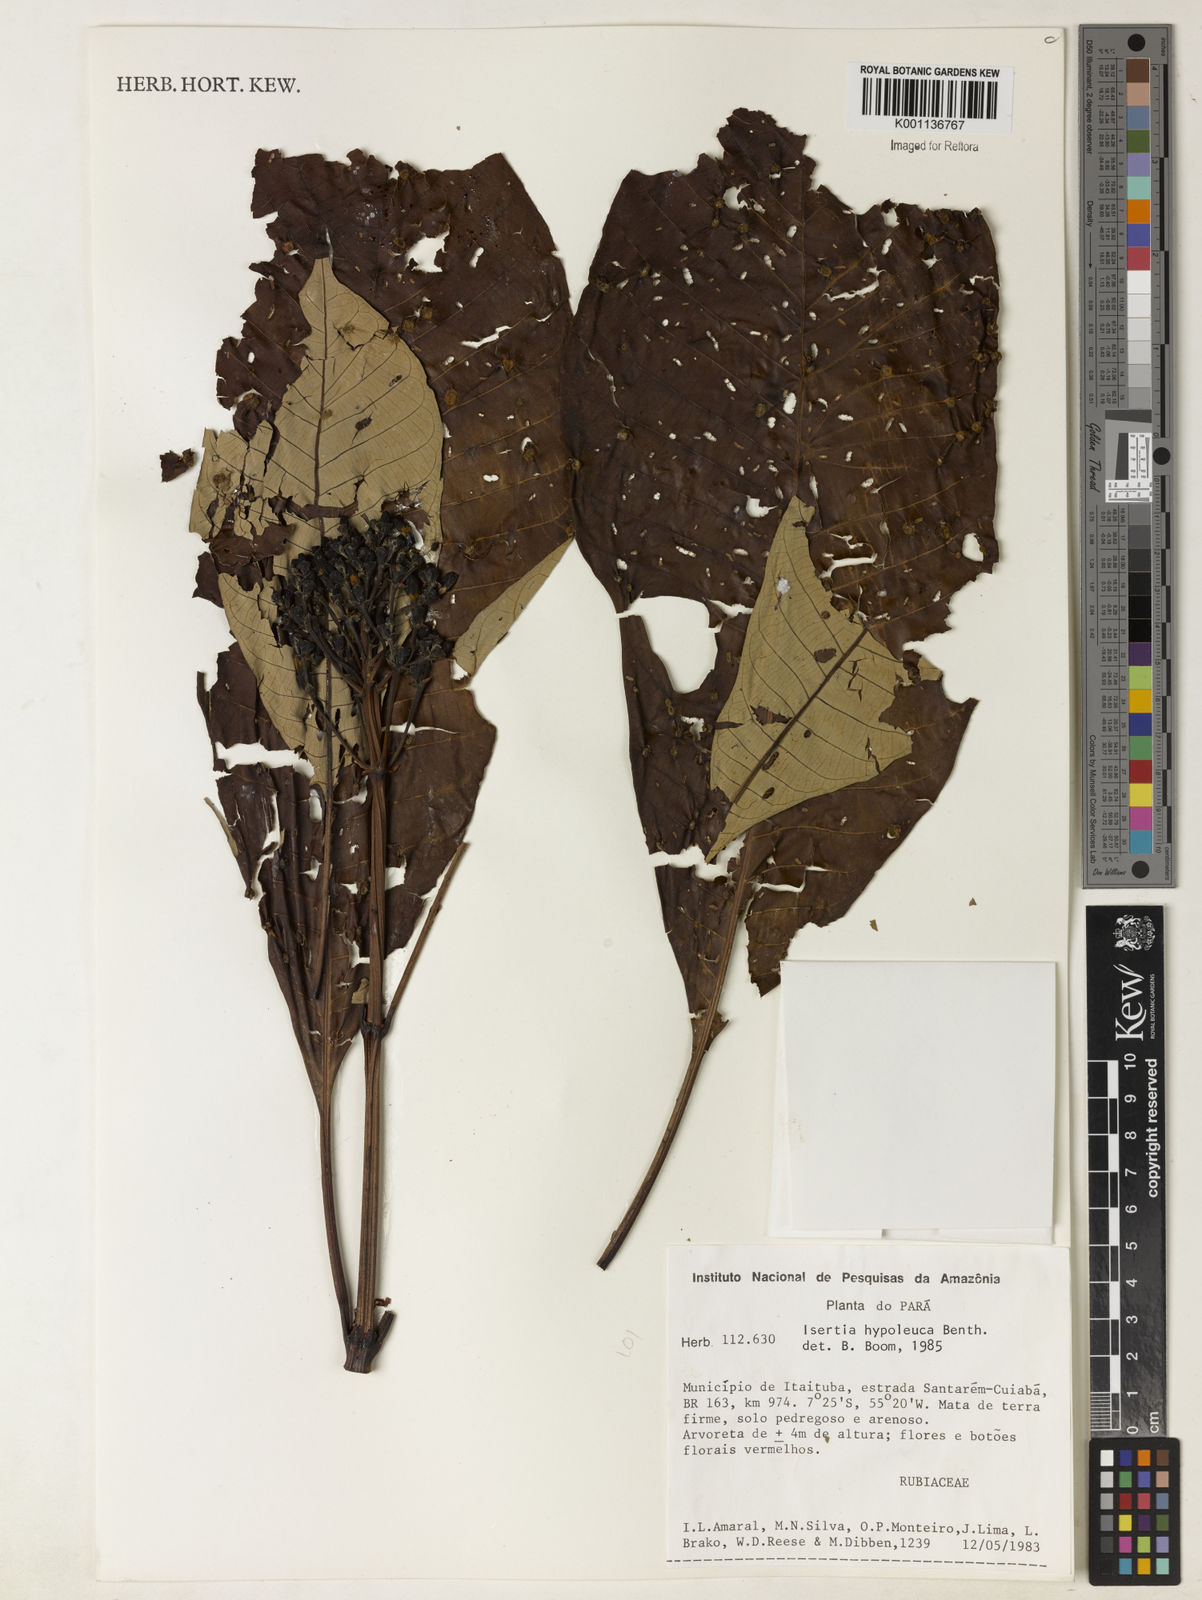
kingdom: Plantae
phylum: Tracheophyta
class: Magnoliopsida
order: Gentianales
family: Rubiaceae
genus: Isertia
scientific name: Isertia hypoleuca
